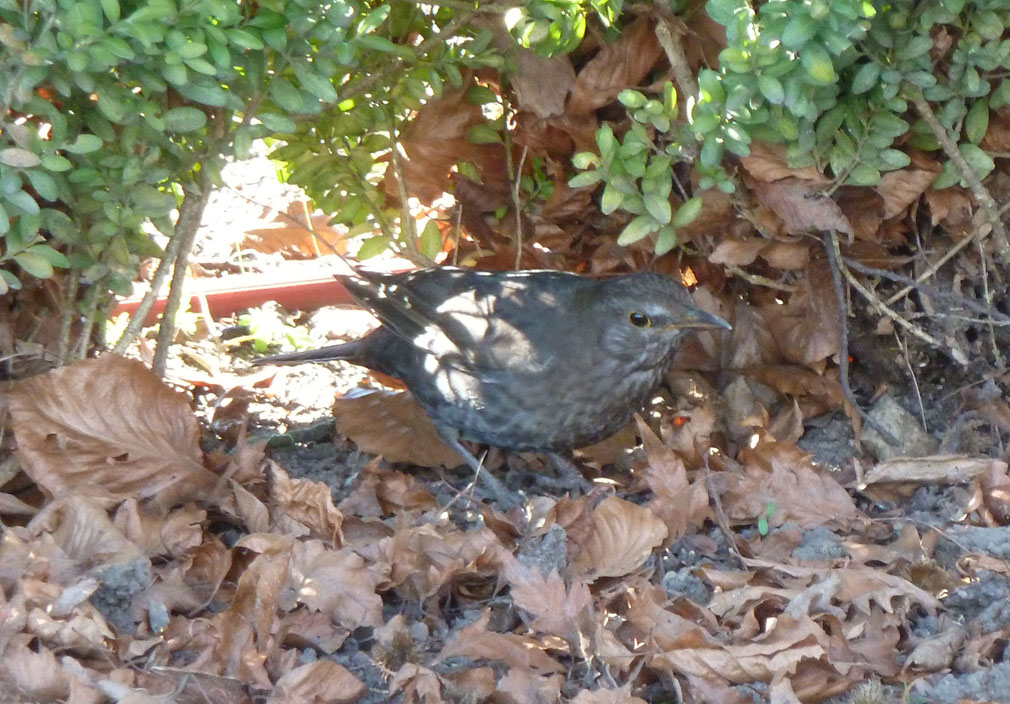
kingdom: Animalia
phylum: Chordata
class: Aves
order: Passeriformes
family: Turdidae
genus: Turdus
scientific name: Turdus merula
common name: Common blackbird
